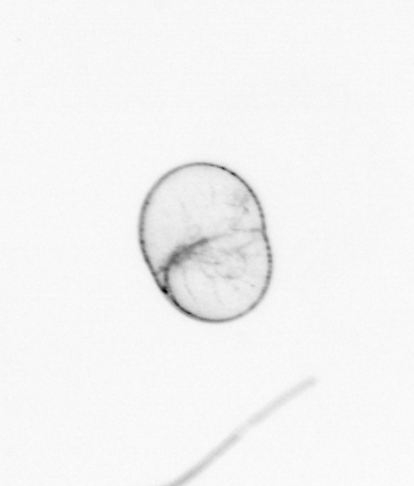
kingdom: Chromista
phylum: Myzozoa
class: Dinophyceae
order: Noctilucales
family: Noctilucaceae
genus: Noctiluca
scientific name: Noctiluca scintillans
